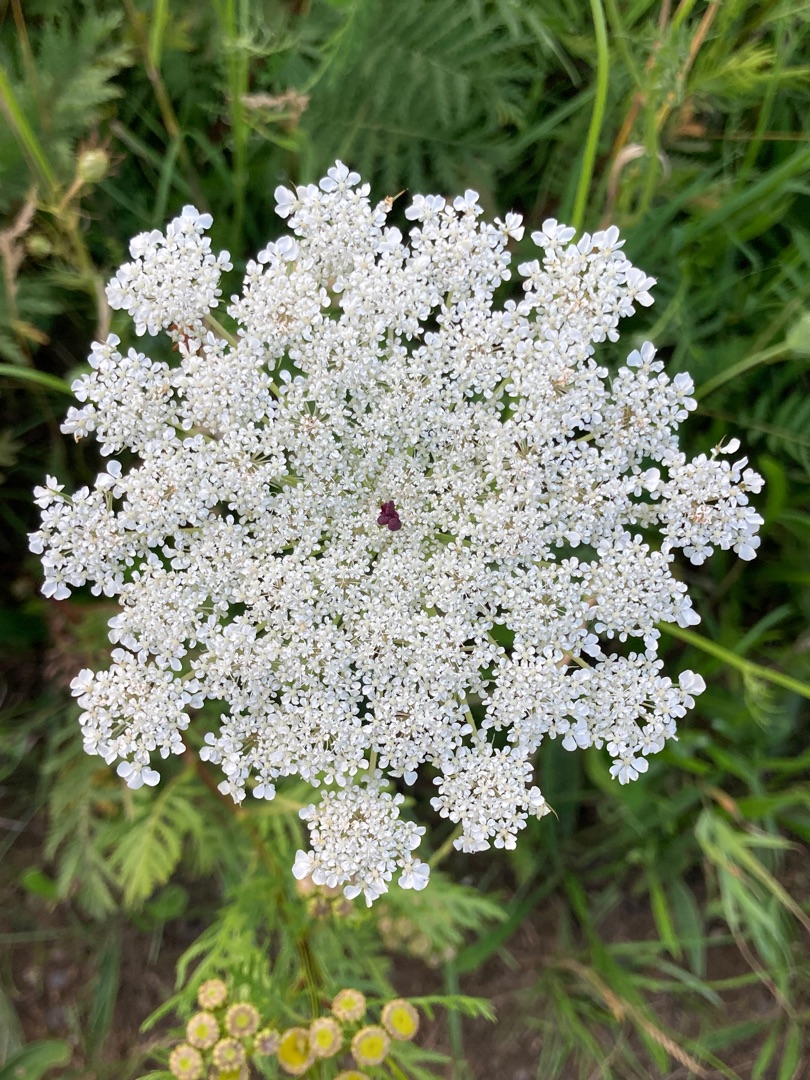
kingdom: Plantae
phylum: Tracheophyta
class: Magnoliopsida
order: Apiales
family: Apiaceae
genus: Daucus
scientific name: Daucus carota
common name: Vild gulerod
